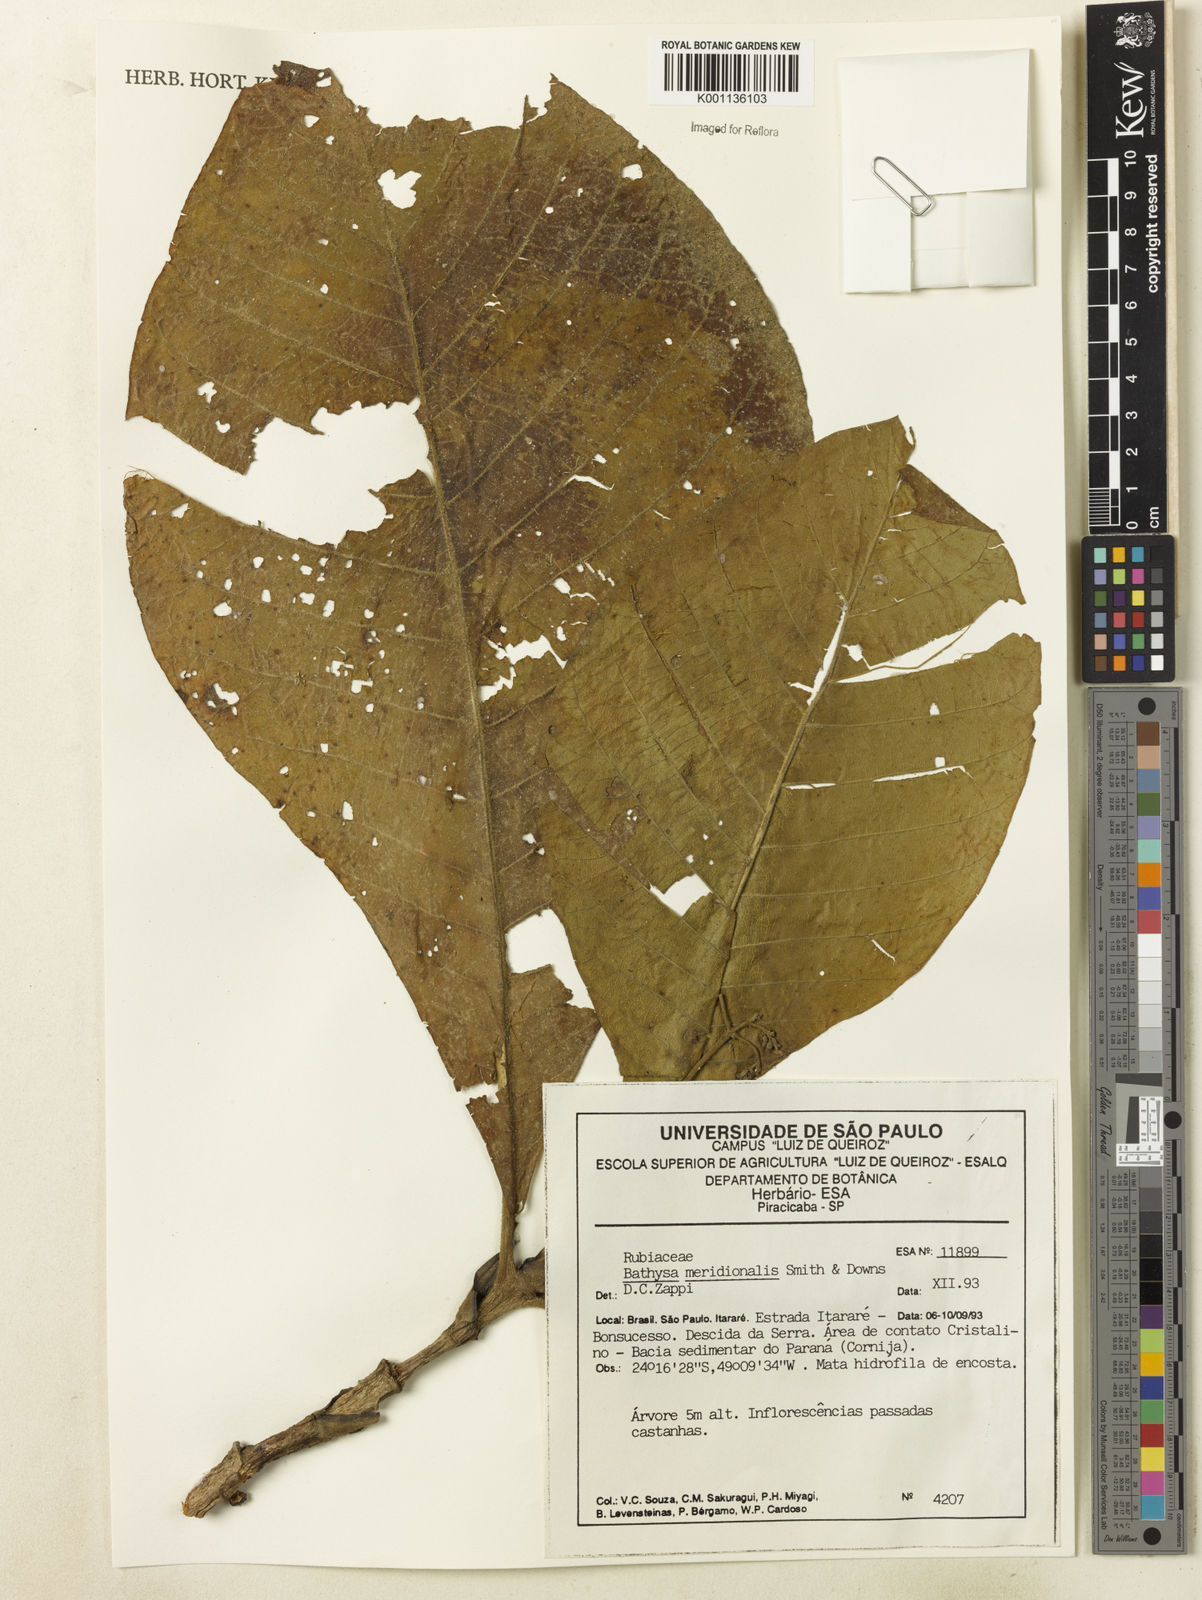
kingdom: Plantae
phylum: Tracheophyta
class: Magnoliopsida
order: Gentianales
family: Rubiaceae
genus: Bathysa
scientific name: Bathysa australis
